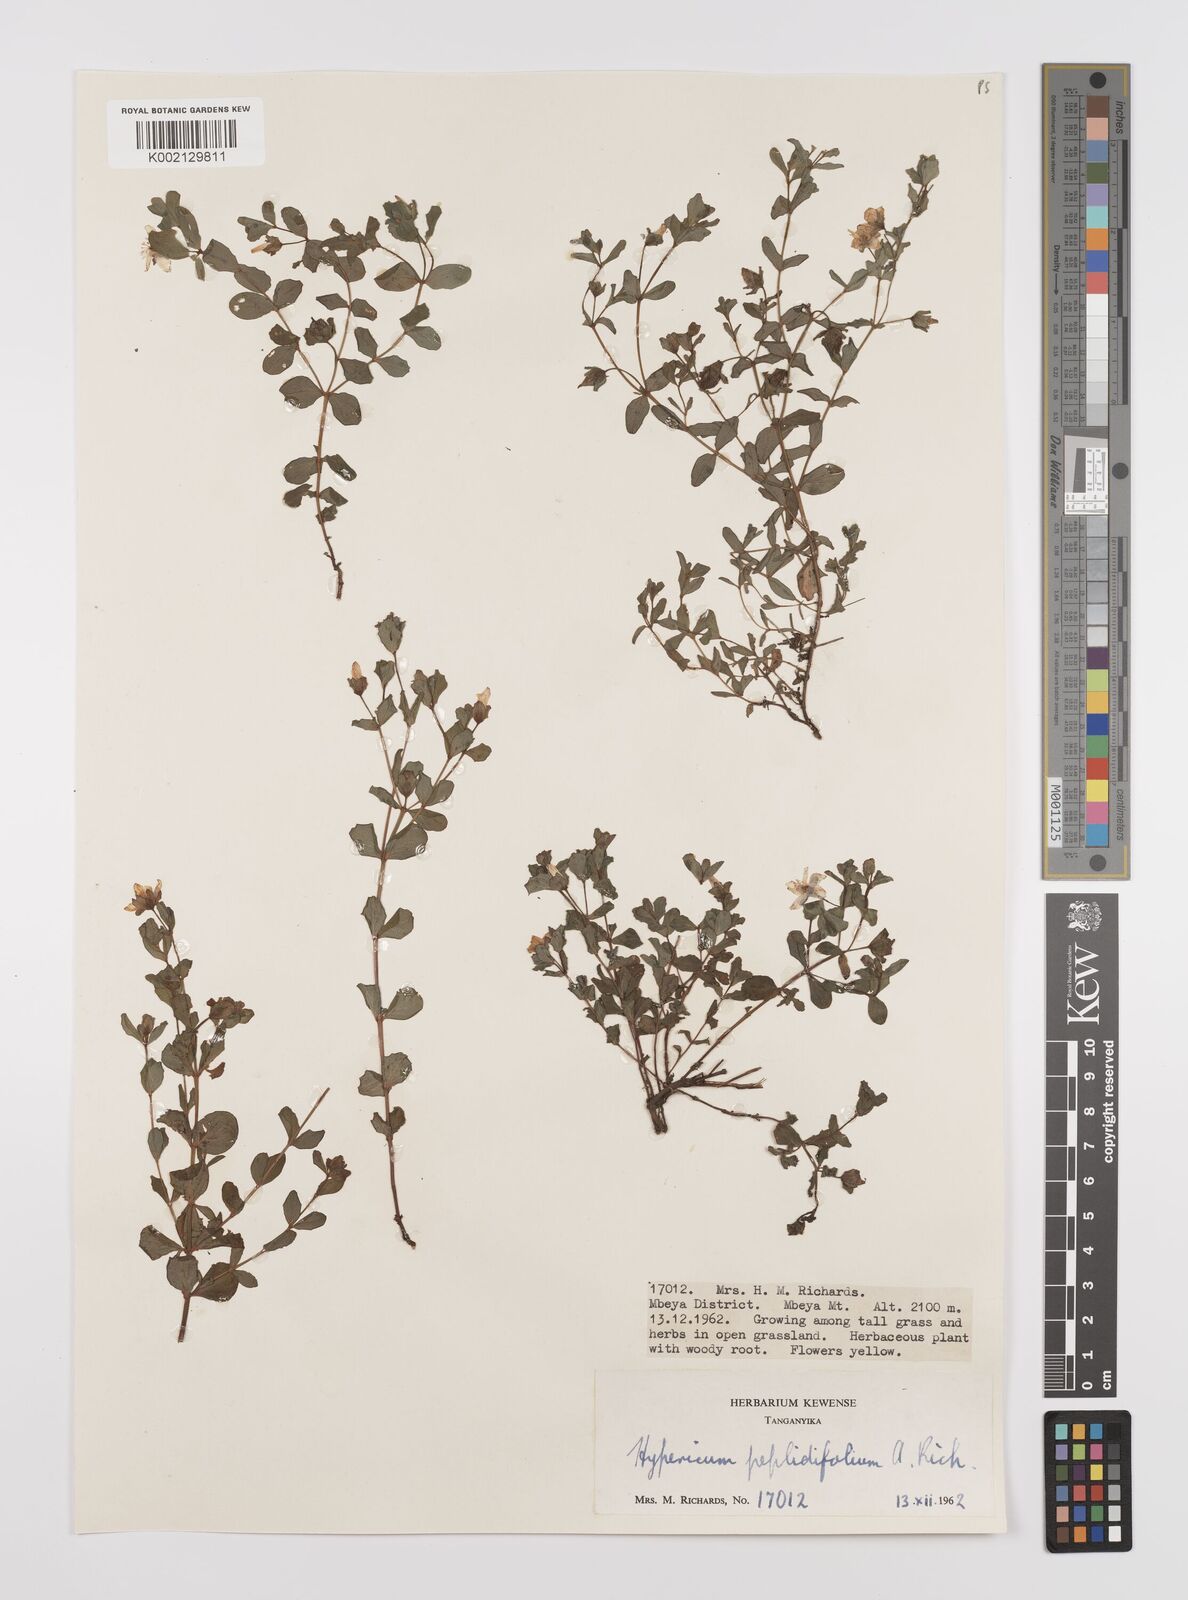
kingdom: Plantae
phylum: Tracheophyta
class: Magnoliopsida
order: Malpighiales
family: Hypericaceae
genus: Hypericum
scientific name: Hypericum peplidifolium
